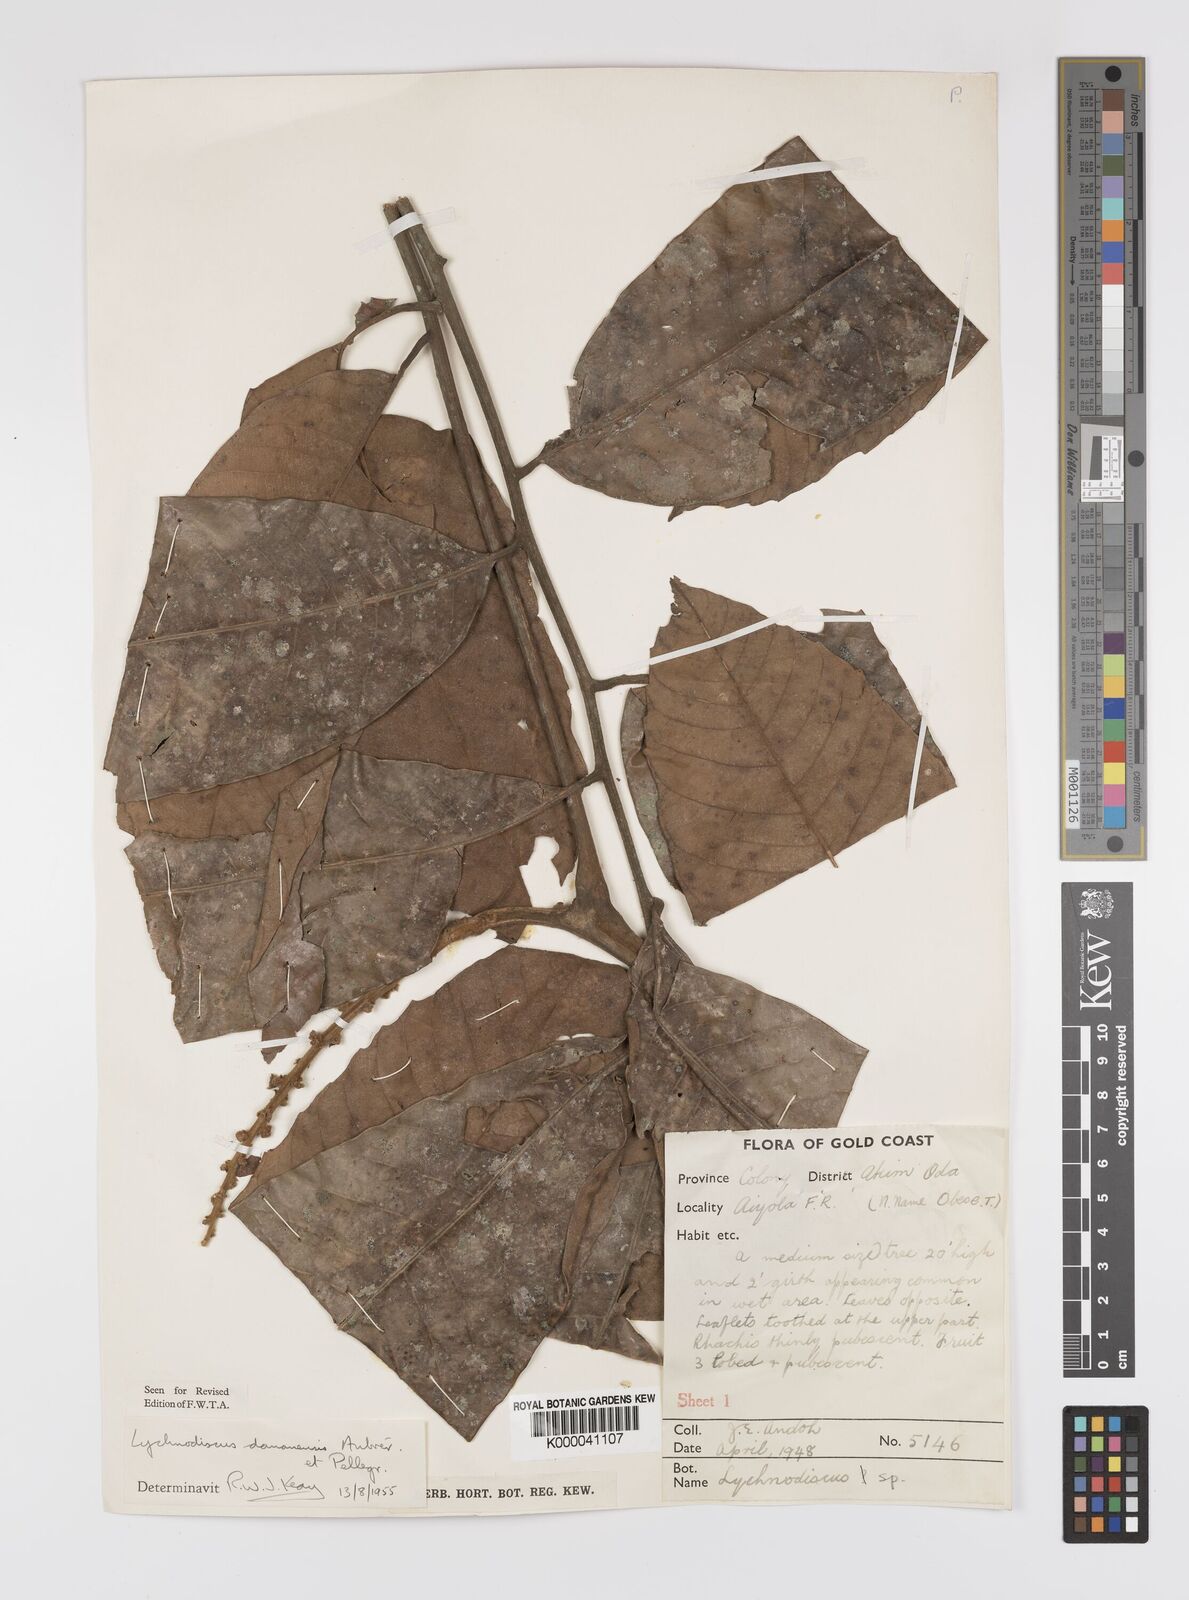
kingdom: Plantae
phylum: Tracheophyta
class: Magnoliopsida
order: Sapindales
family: Sapindaceae
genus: Lychnodiscus
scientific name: Lychnodiscus dananensis
